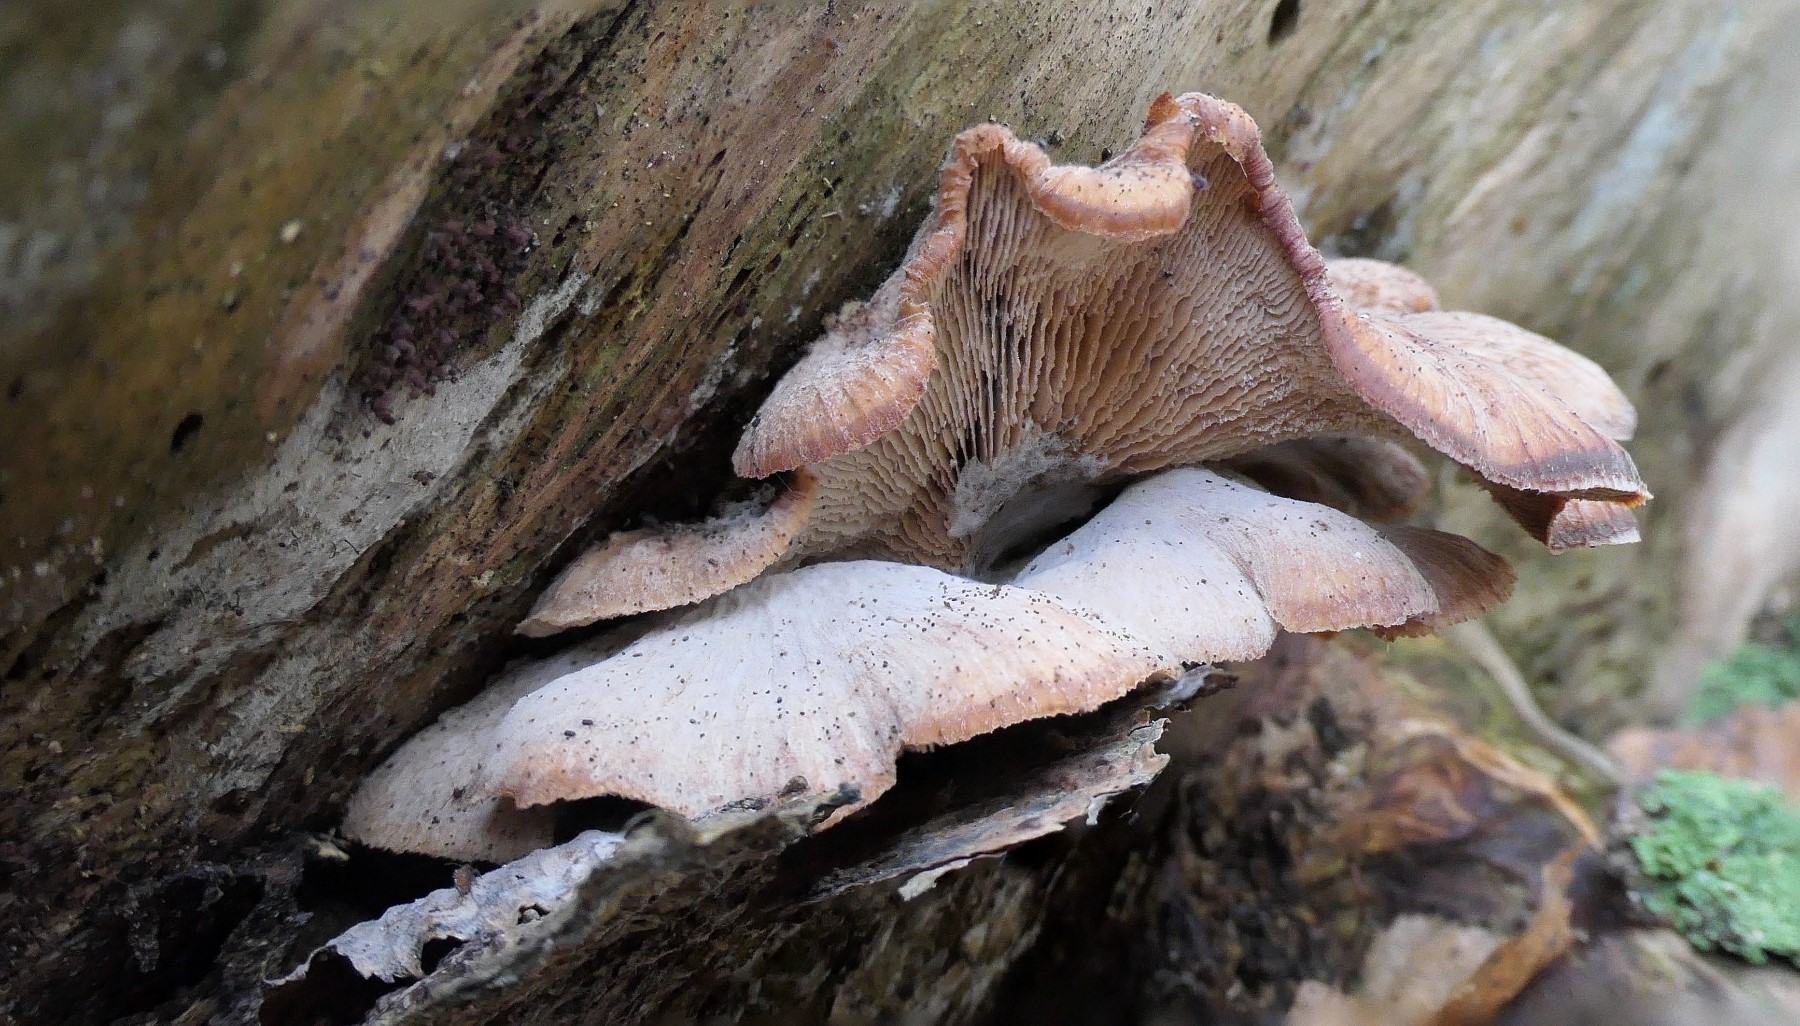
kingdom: Fungi
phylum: Basidiomycota
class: Agaricomycetes
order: Russulales
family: Auriscalpiaceae
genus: Lentinellus
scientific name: Lentinellus ursinus
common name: børstehåret savbladhat
